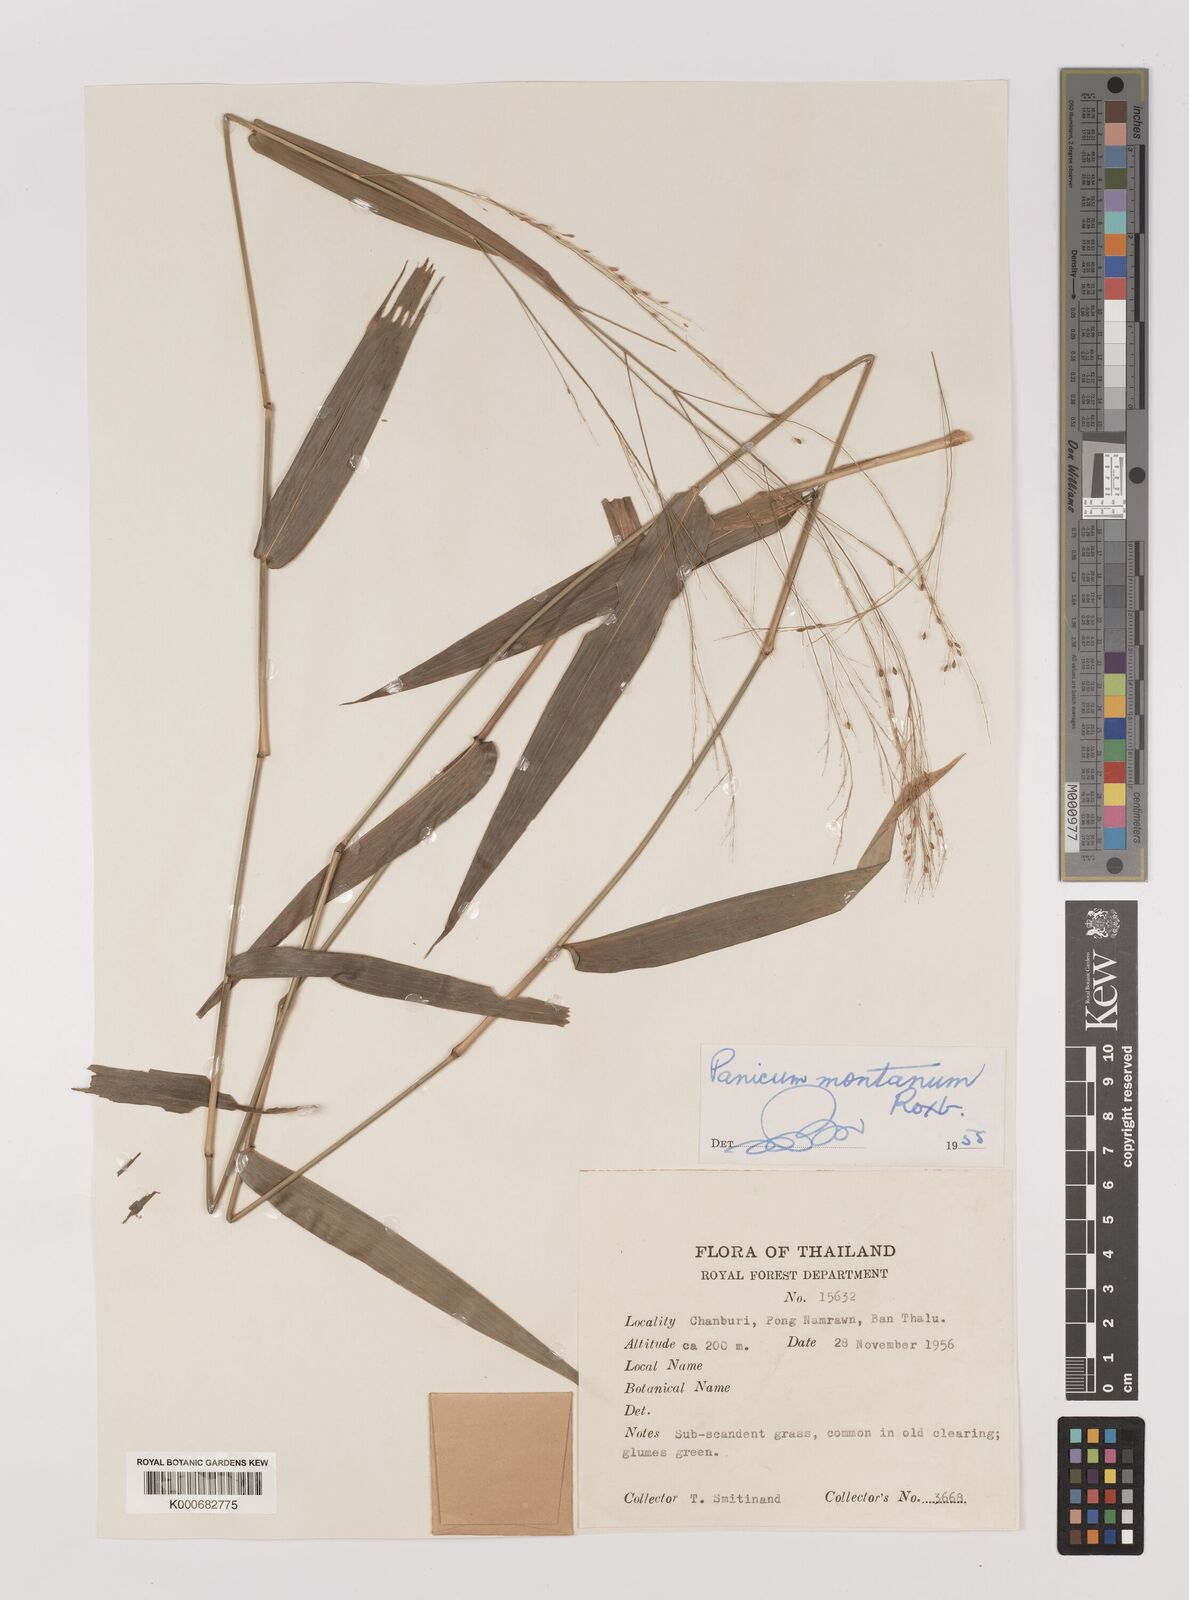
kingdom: Plantae
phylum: Tracheophyta
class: Liliopsida
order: Poales
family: Poaceae
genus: Panicum
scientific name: Panicum notatum
